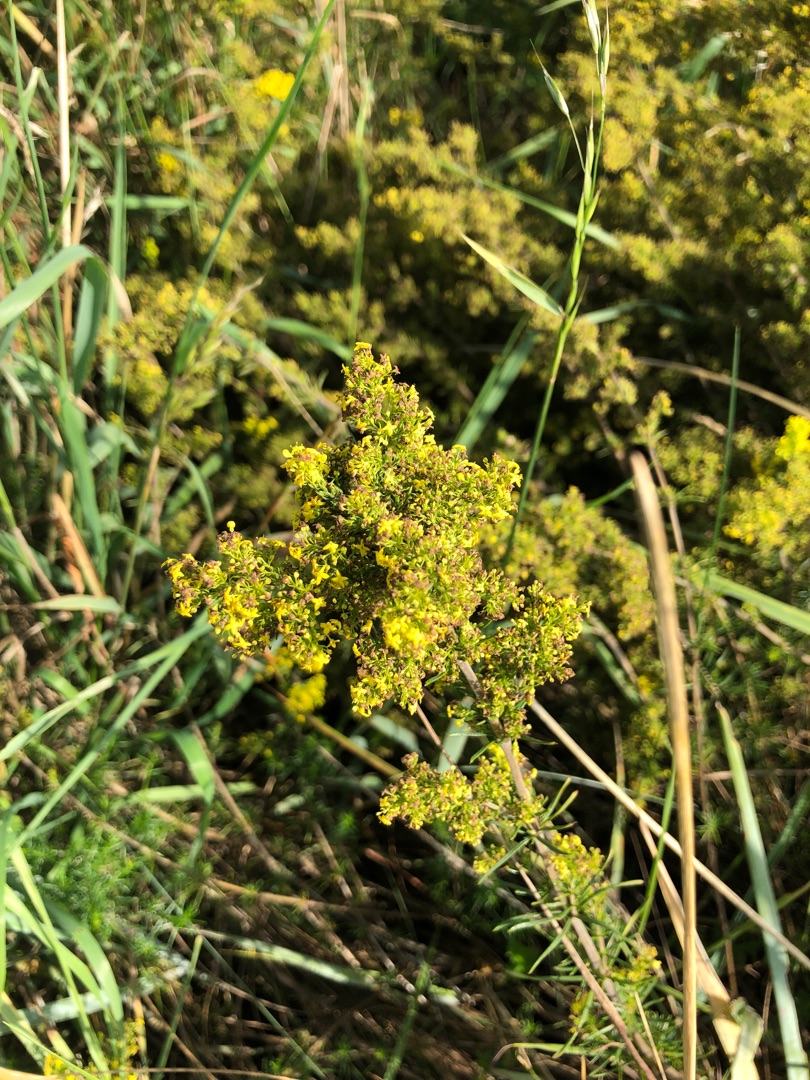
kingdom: Plantae
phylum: Tracheophyta
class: Magnoliopsida
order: Gentianales
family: Rubiaceae
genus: Galium
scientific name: Galium verum
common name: Gul snerre
